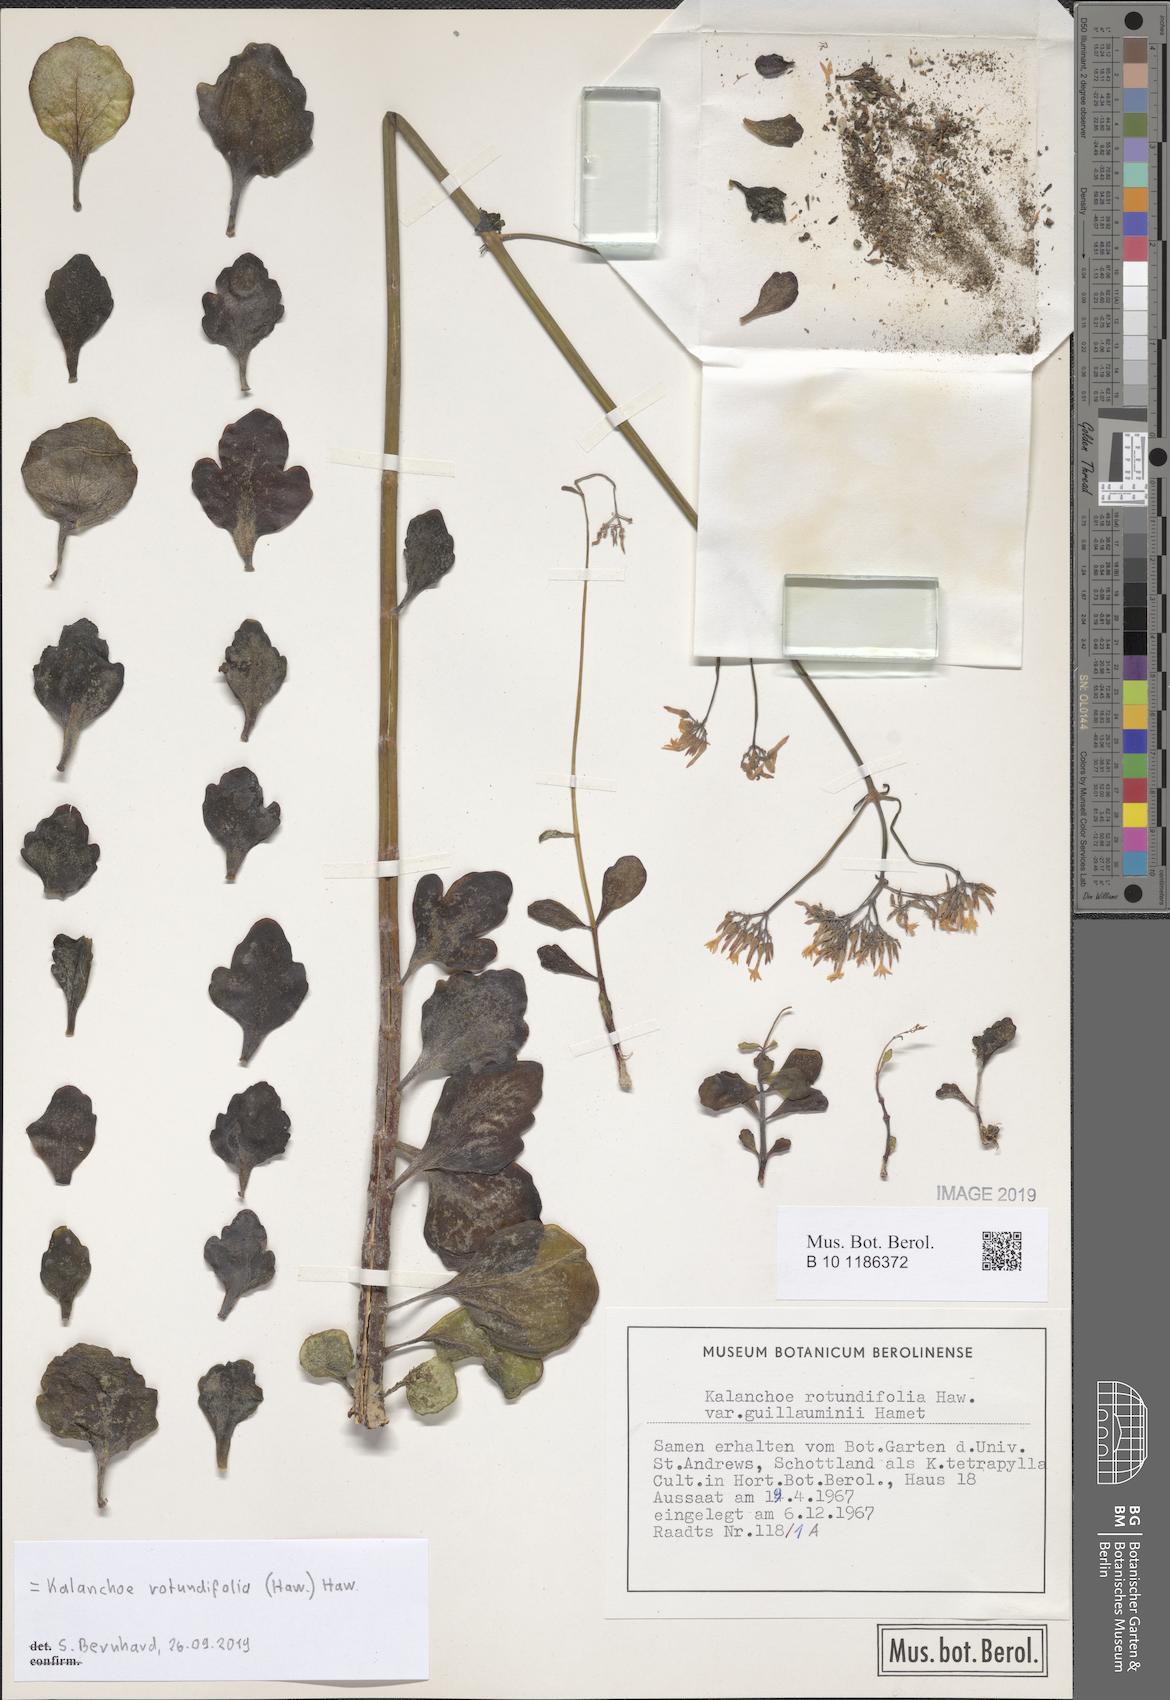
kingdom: Plantae
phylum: Tracheophyta
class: Magnoliopsida
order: Saxifragales
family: Crassulaceae
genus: Kalanchoe
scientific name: Kalanchoe rotundifolia
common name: Common kalanchoe
